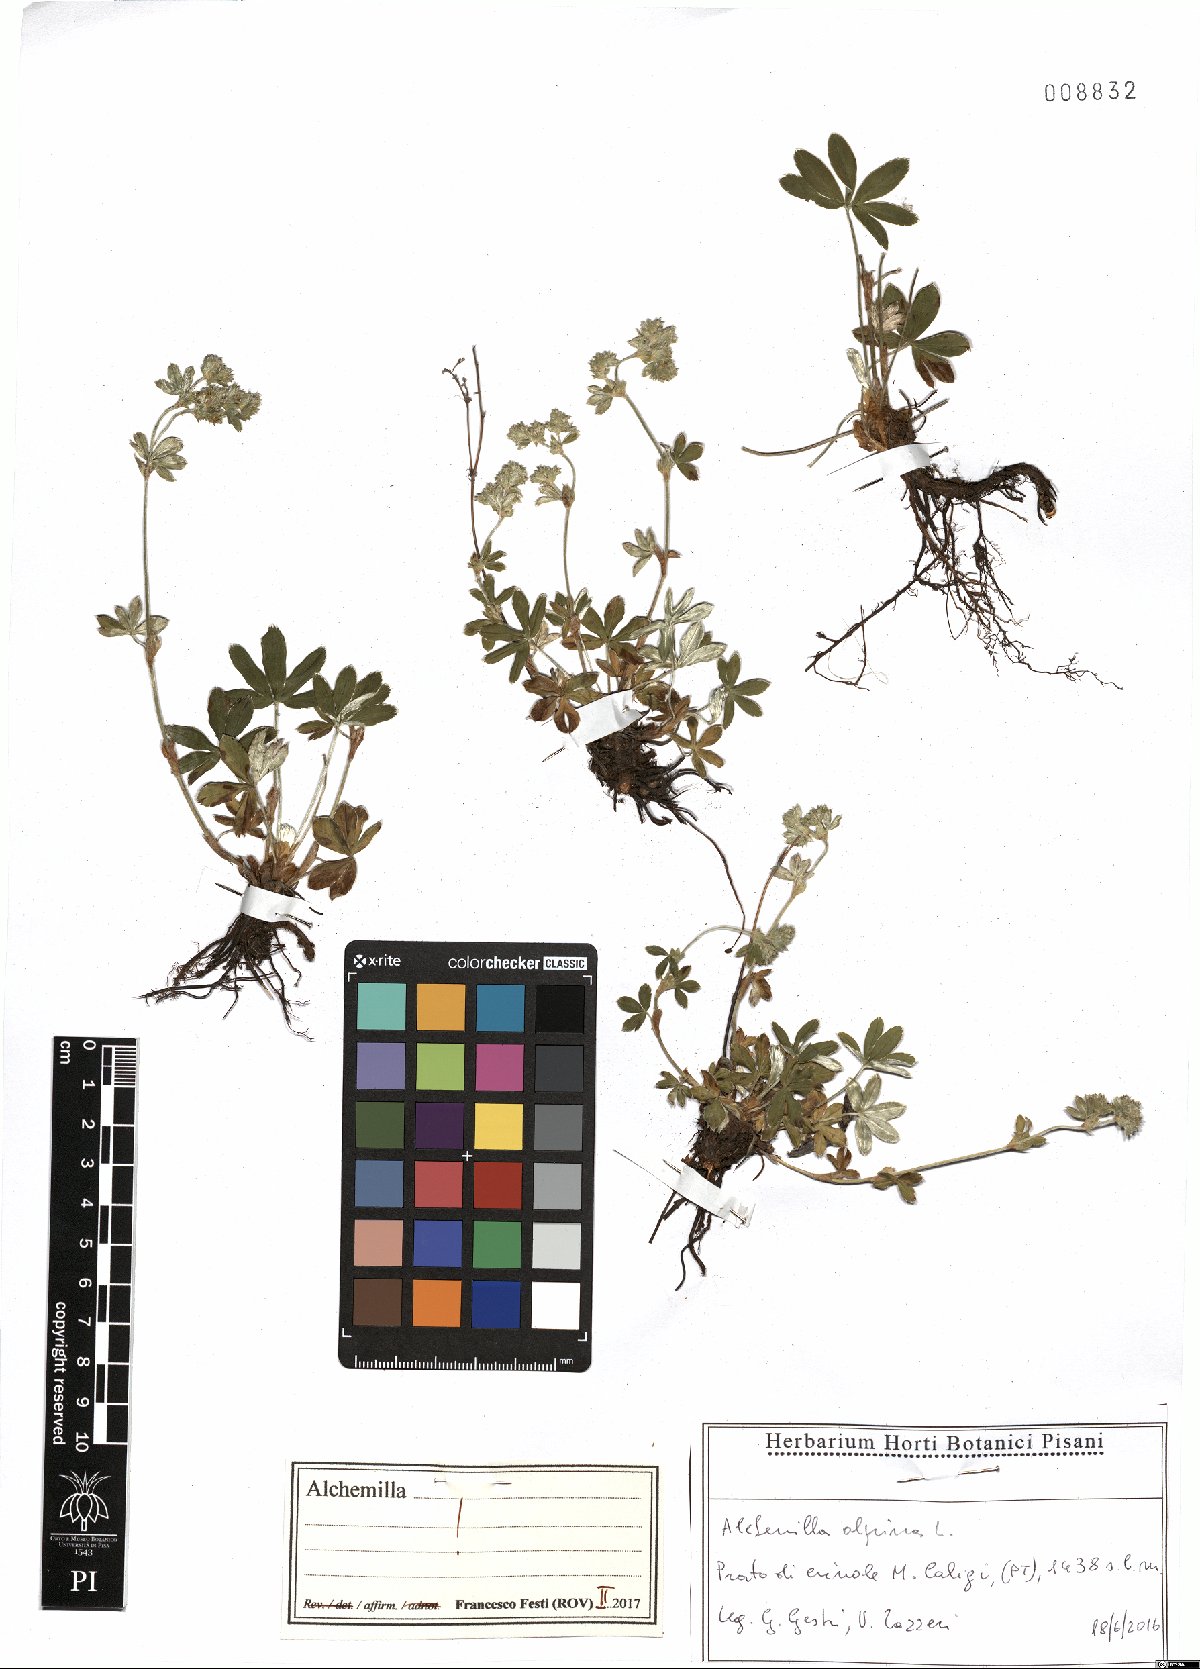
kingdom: Plantae
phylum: Tracheophyta
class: Magnoliopsida
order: Rosales
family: Rosaceae
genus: Alchemilla
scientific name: Alchemilla alpina
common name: Alpine lady's-mantle
